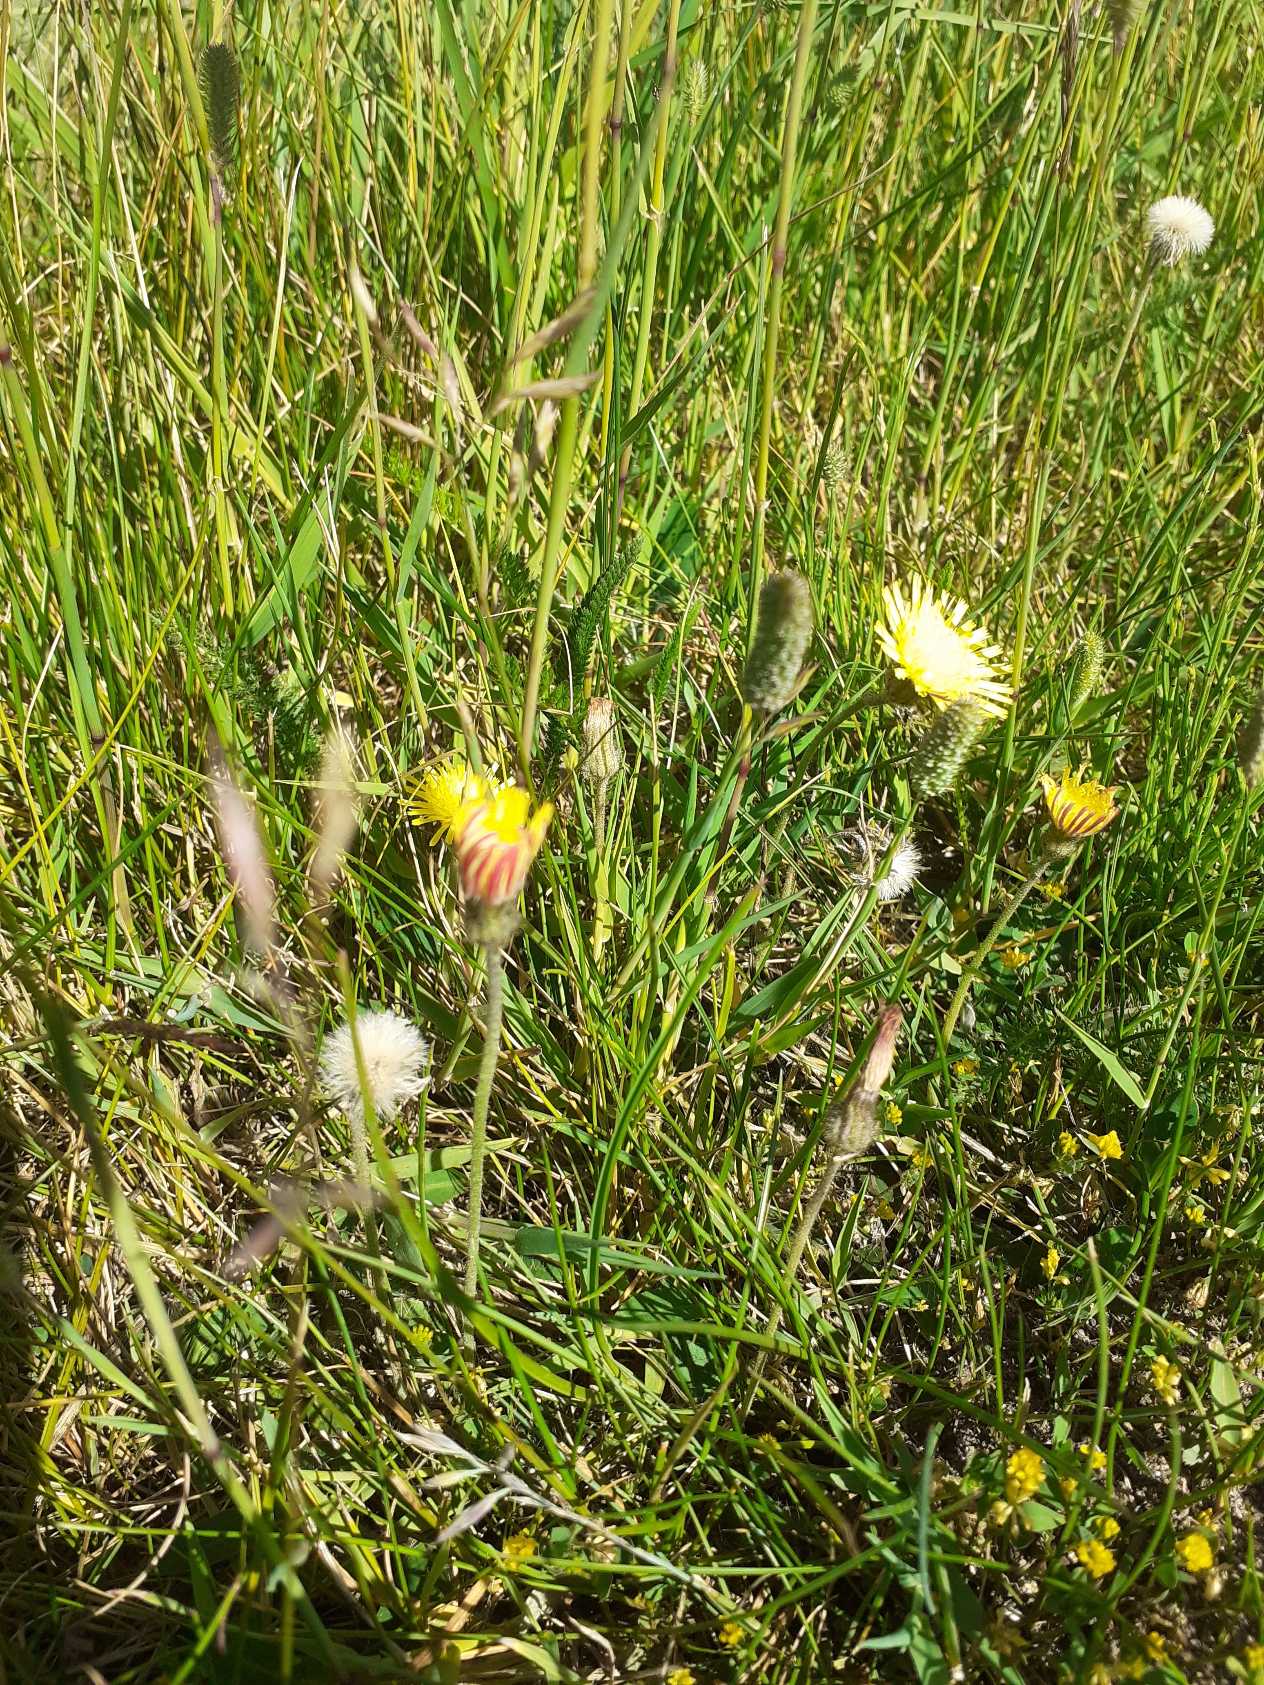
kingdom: Plantae
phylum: Tracheophyta
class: Magnoliopsida
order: Asterales
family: Asteraceae
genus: Pilosella
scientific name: Pilosella officinarum
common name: Håret høgeurt
